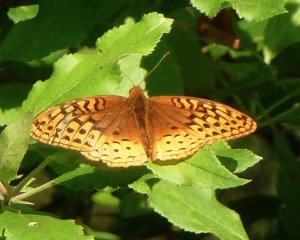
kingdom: Animalia
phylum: Arthropoda
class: Insecta
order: Lepidoptera
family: Nymphalidae
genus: Speyeria
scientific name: Speyeria cybele
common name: Great Spangled Fritillary
